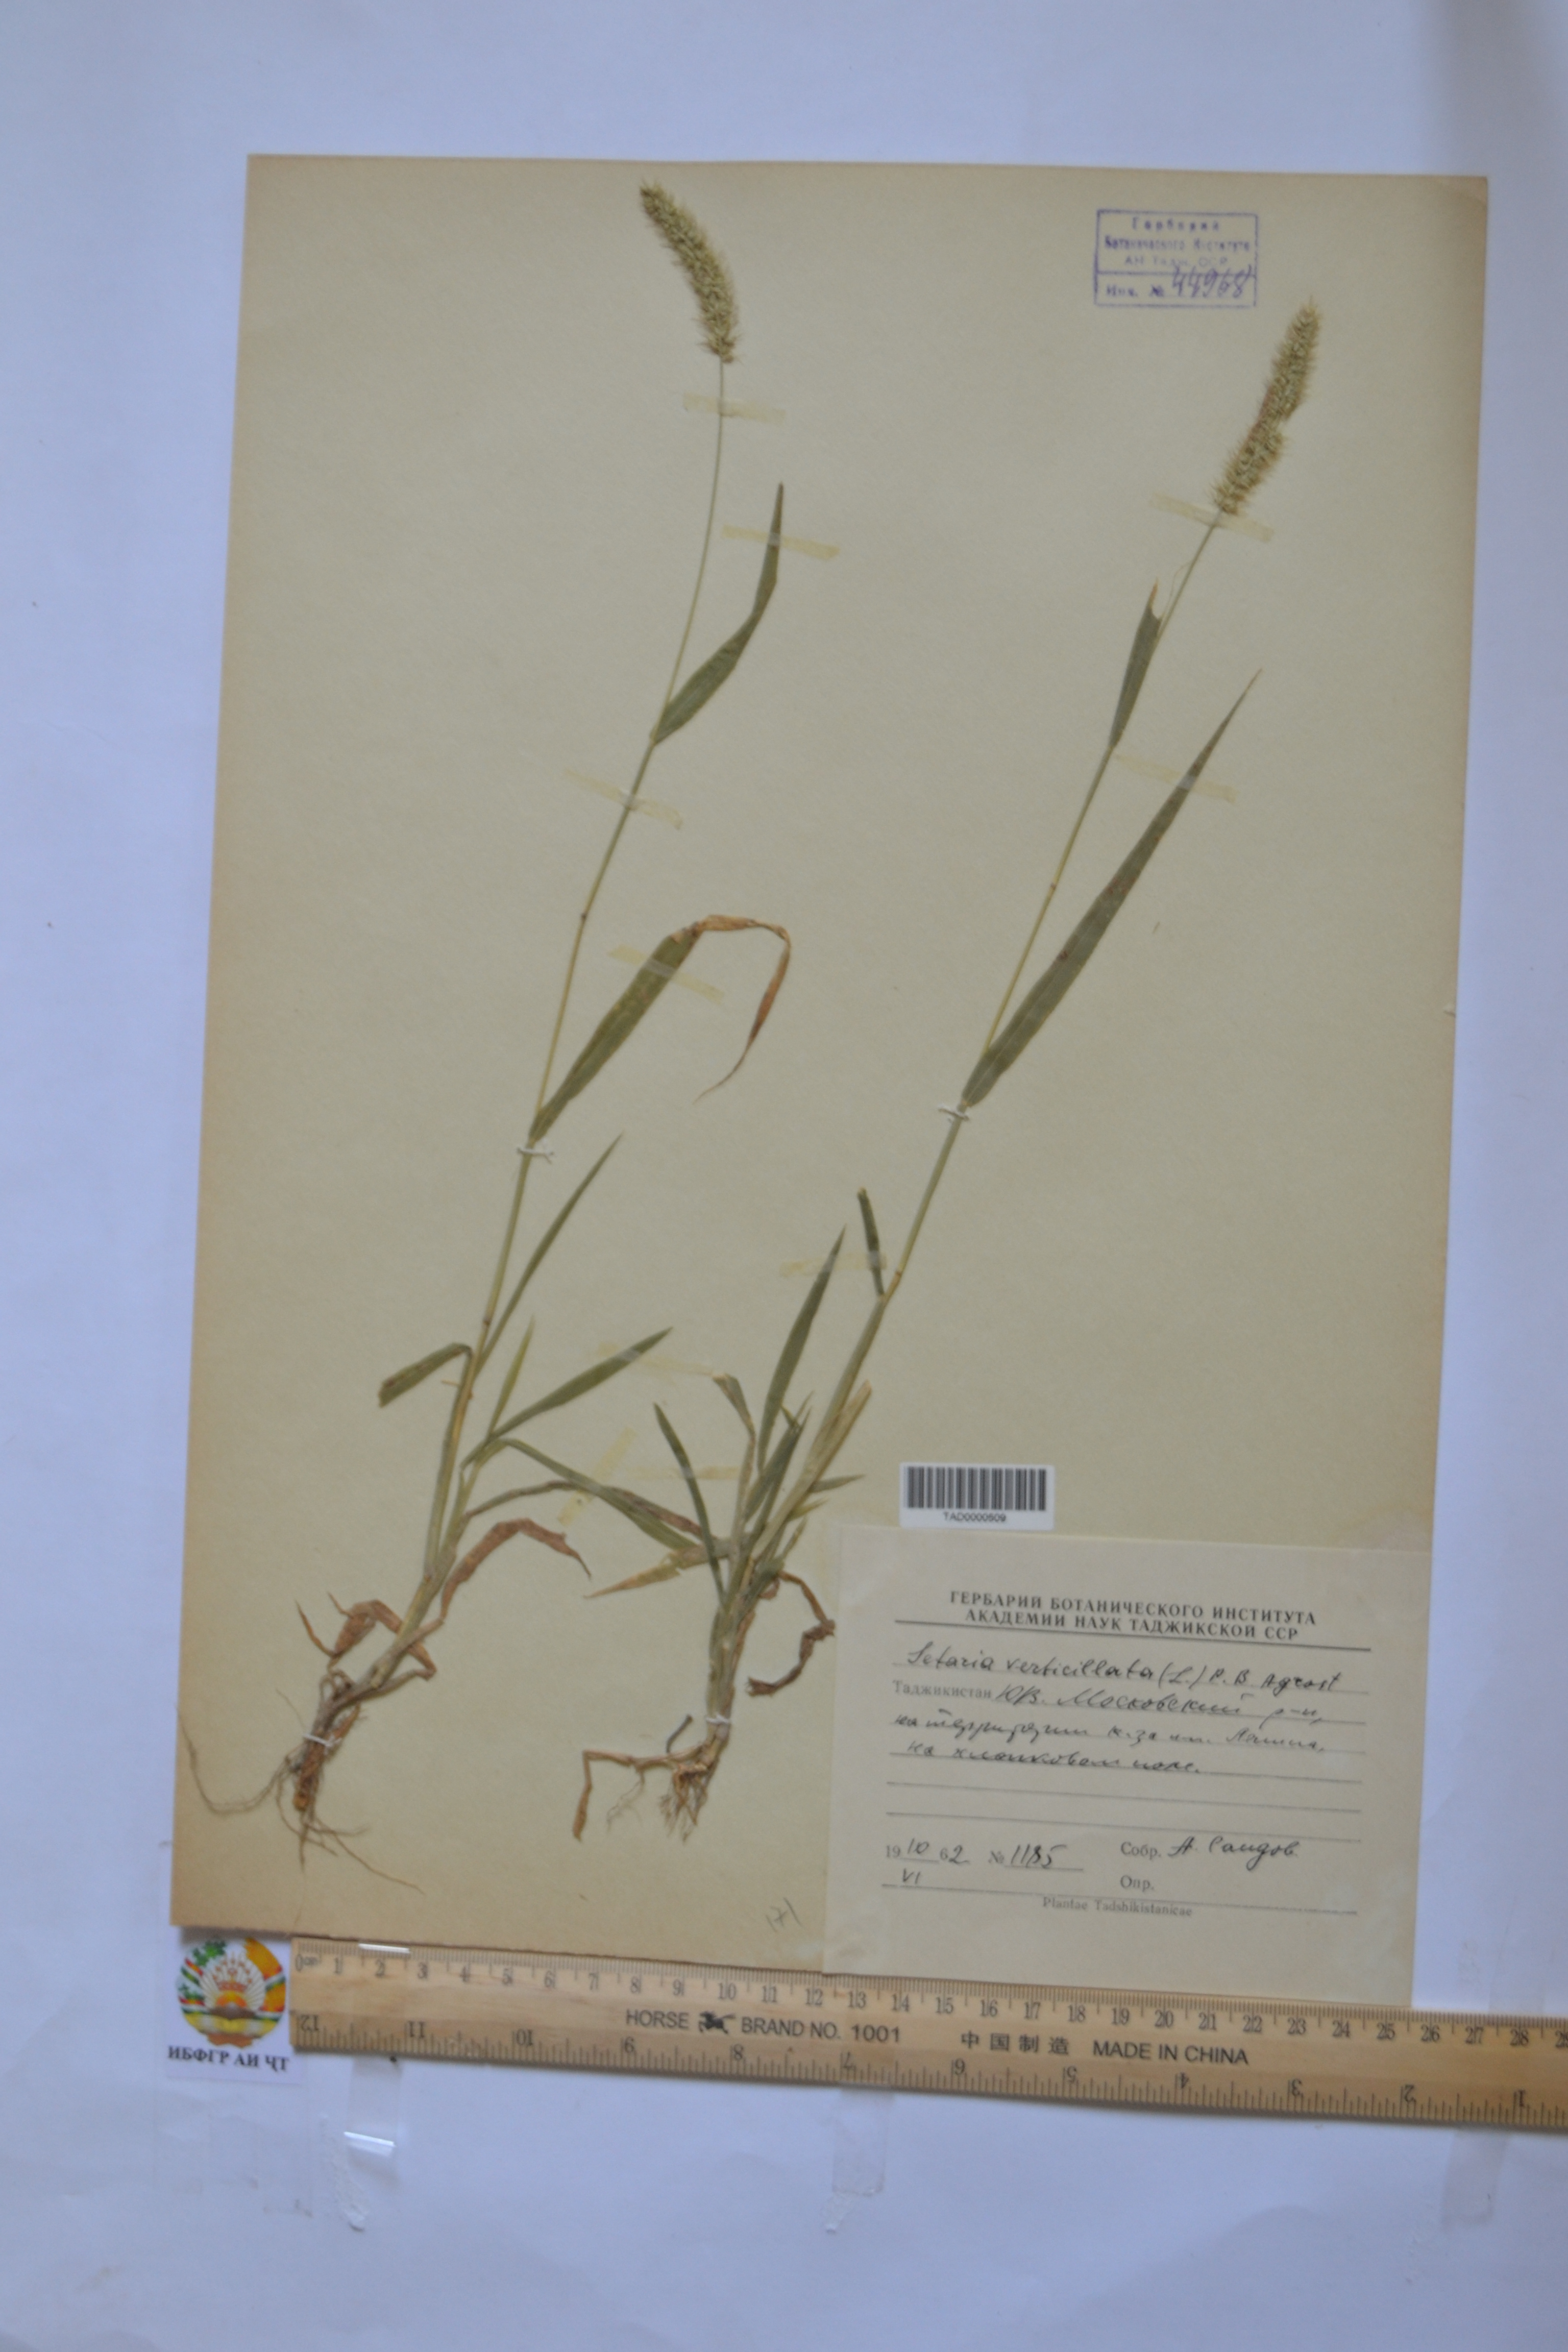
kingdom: Plantae
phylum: Tracheophyta
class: Liliopsida
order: Poales
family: Poaceae
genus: Setaria
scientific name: Setaria verticillata
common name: Hooked bristlegrass
